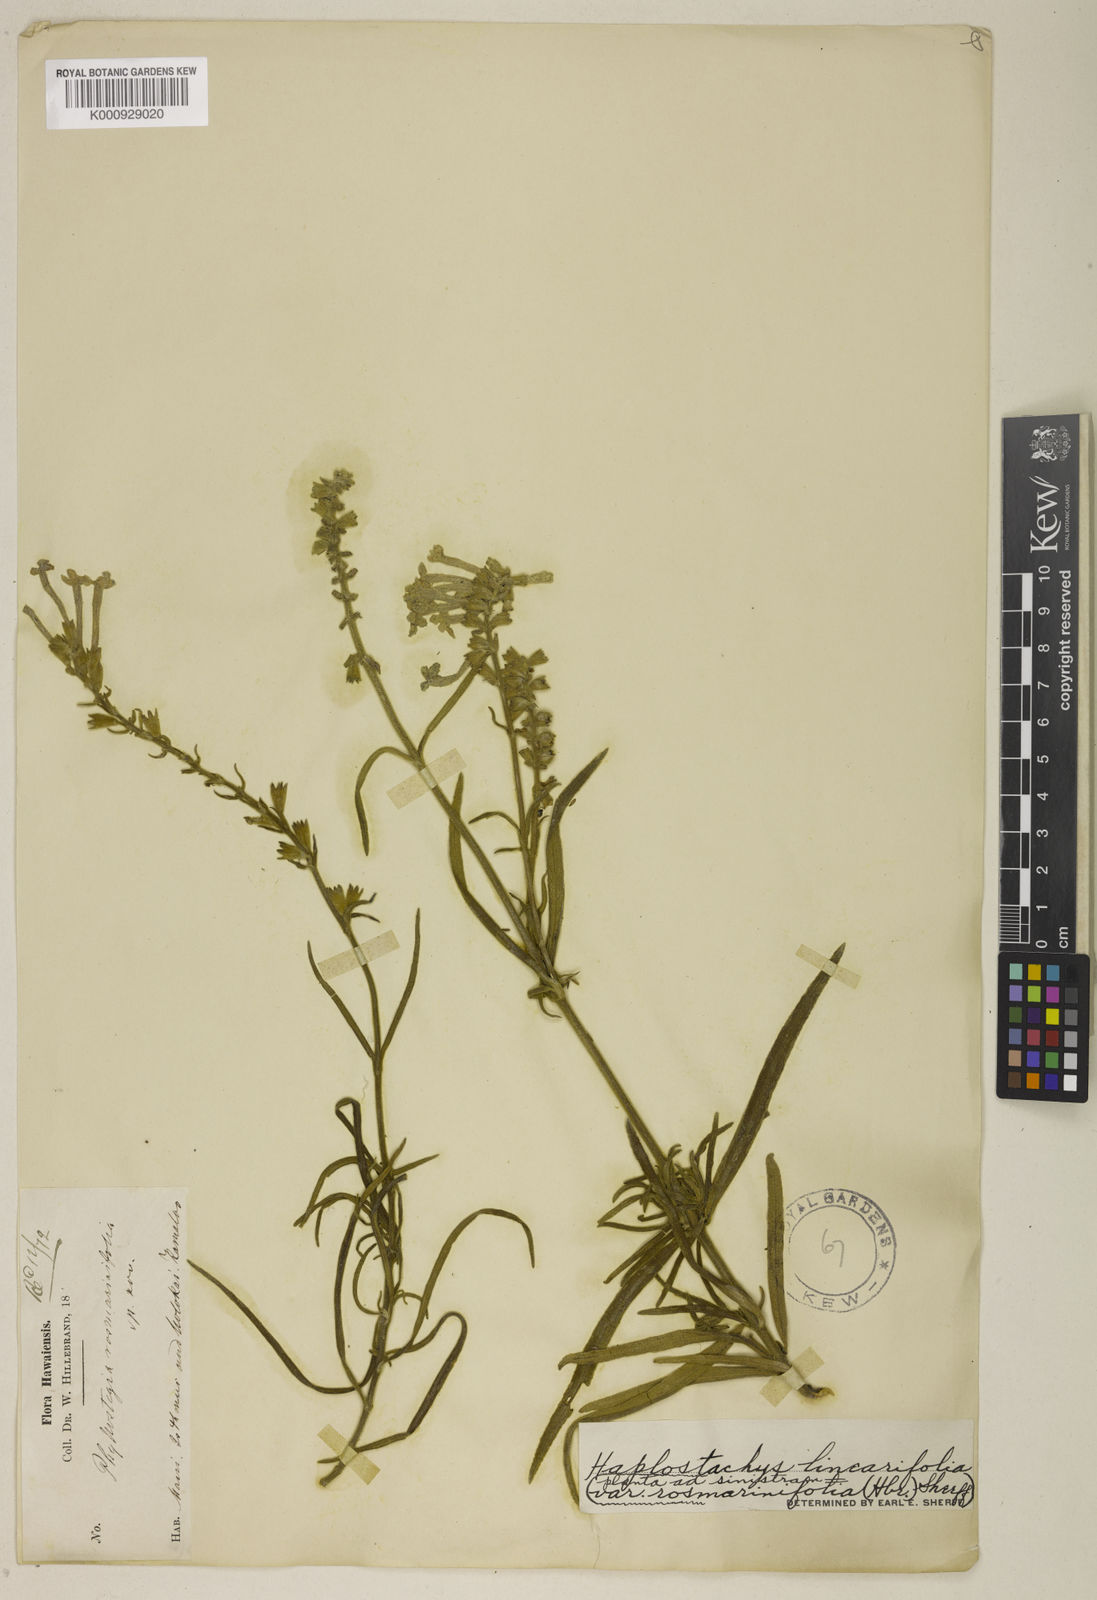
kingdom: Plantae
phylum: Tracheophyta
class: Magnoliopsida
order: Lamiales
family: Lamiaceae
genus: Haplostachys
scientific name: Haplostachys linearifolia
